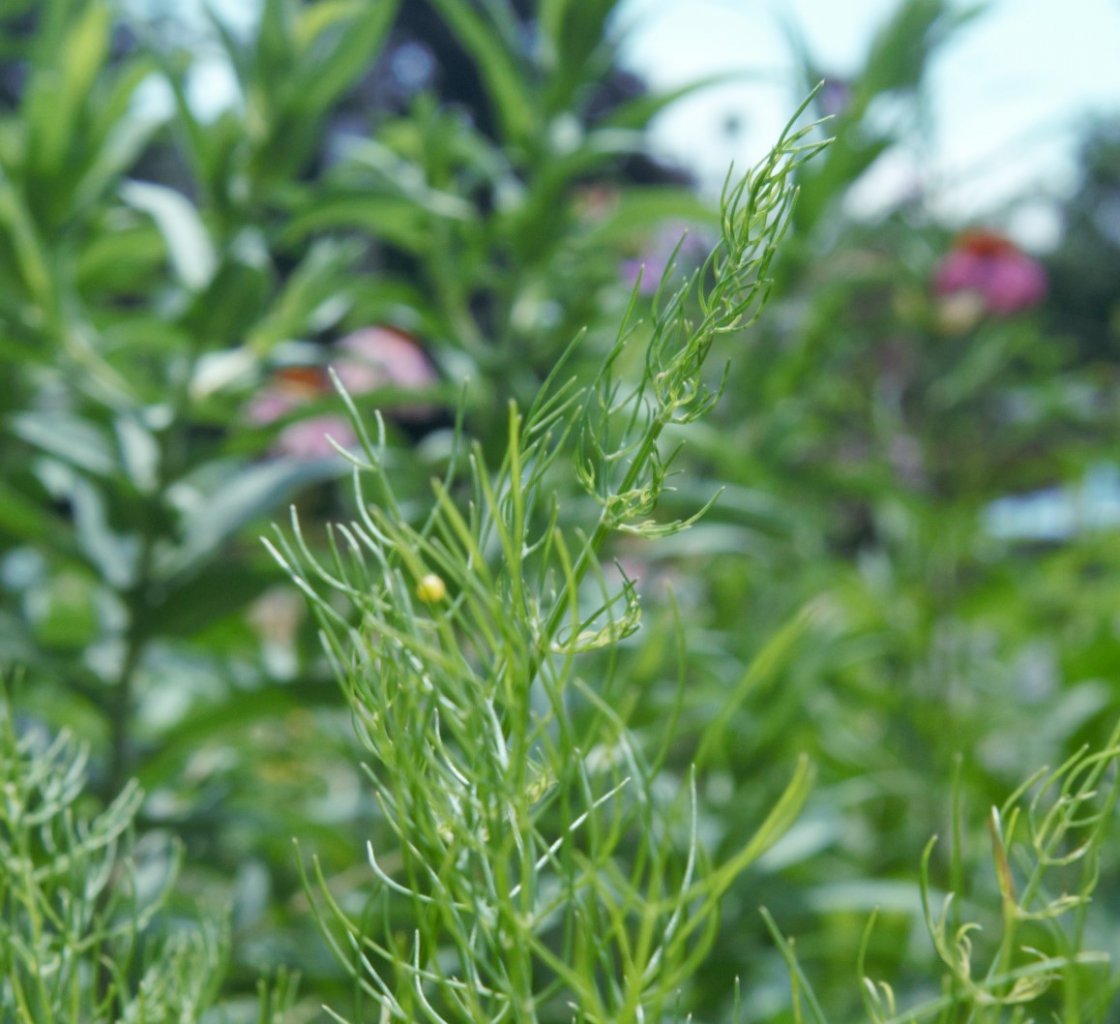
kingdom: Animalia
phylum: Arthropoda
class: Insecta
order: Lepidoptera
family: Papilionidae
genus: Papilio
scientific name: Papilio polyxenes
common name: Black Swallowtail
